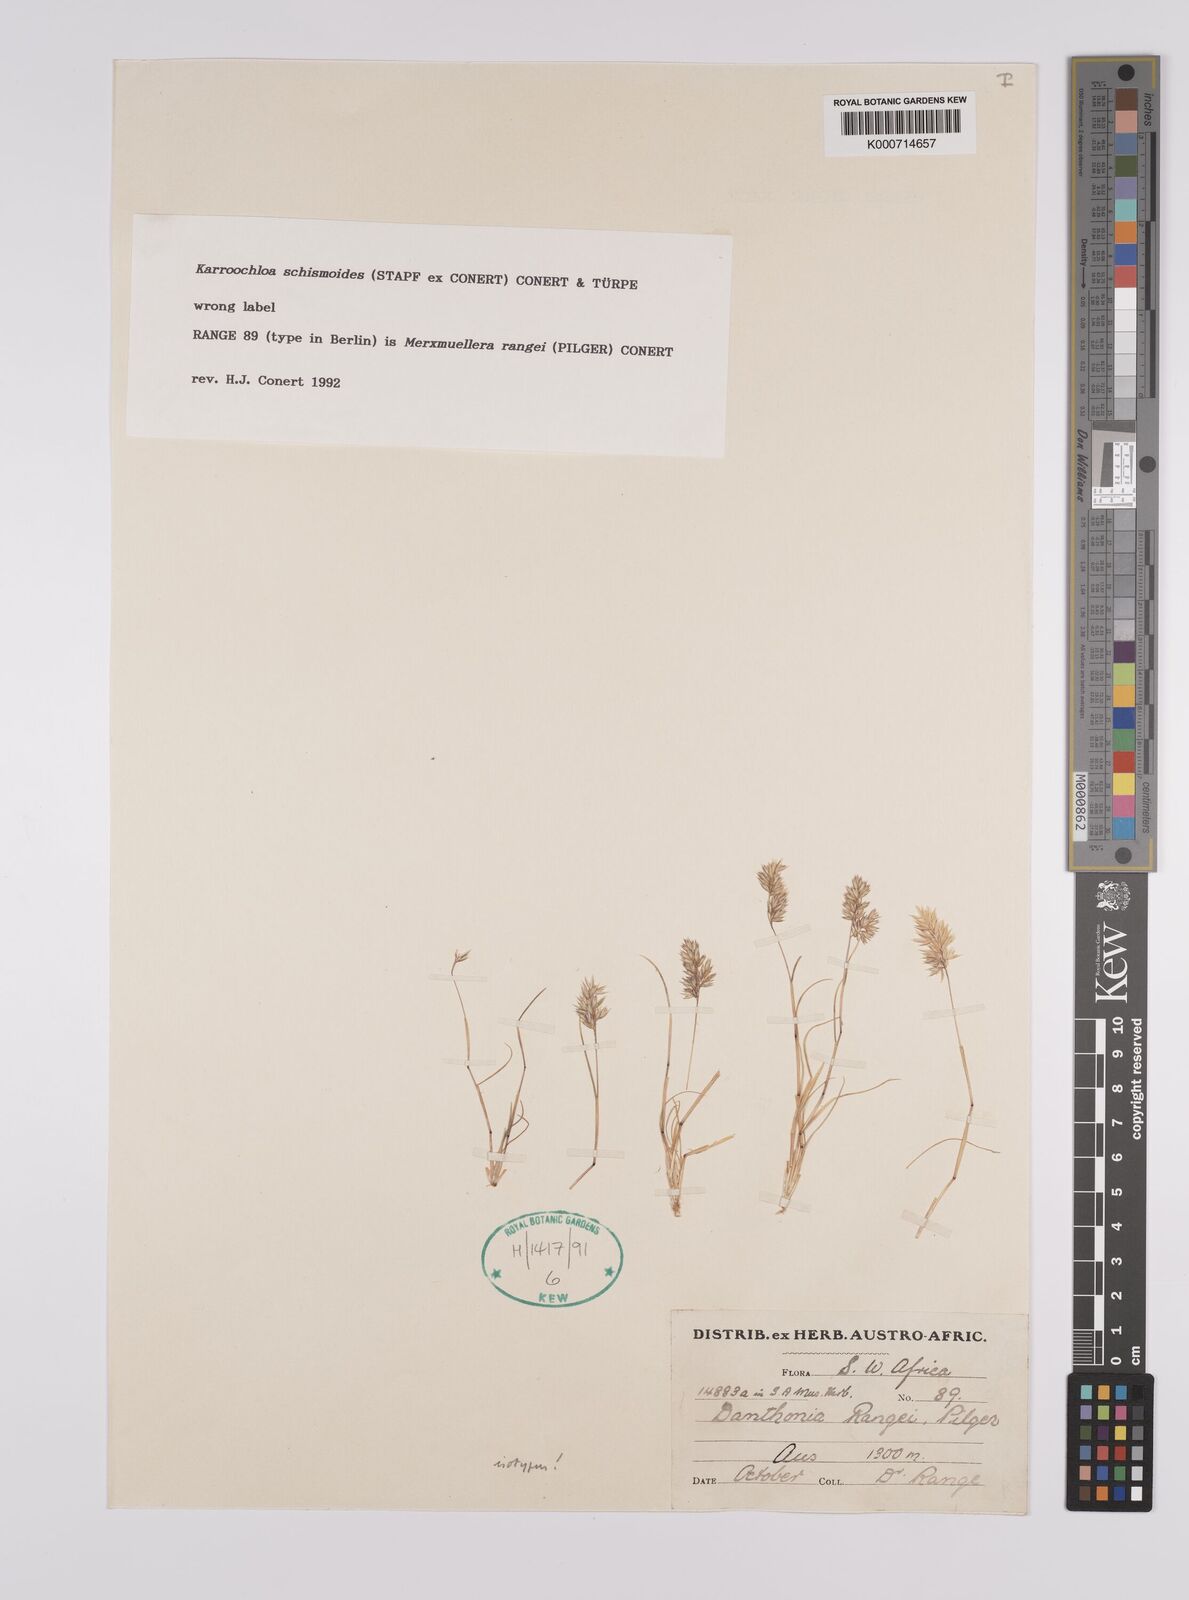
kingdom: Plantae
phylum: Tracheophyta
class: Liliopsida
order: Poales
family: Poaceae
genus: Rytidosperma
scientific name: Rytidosperma
